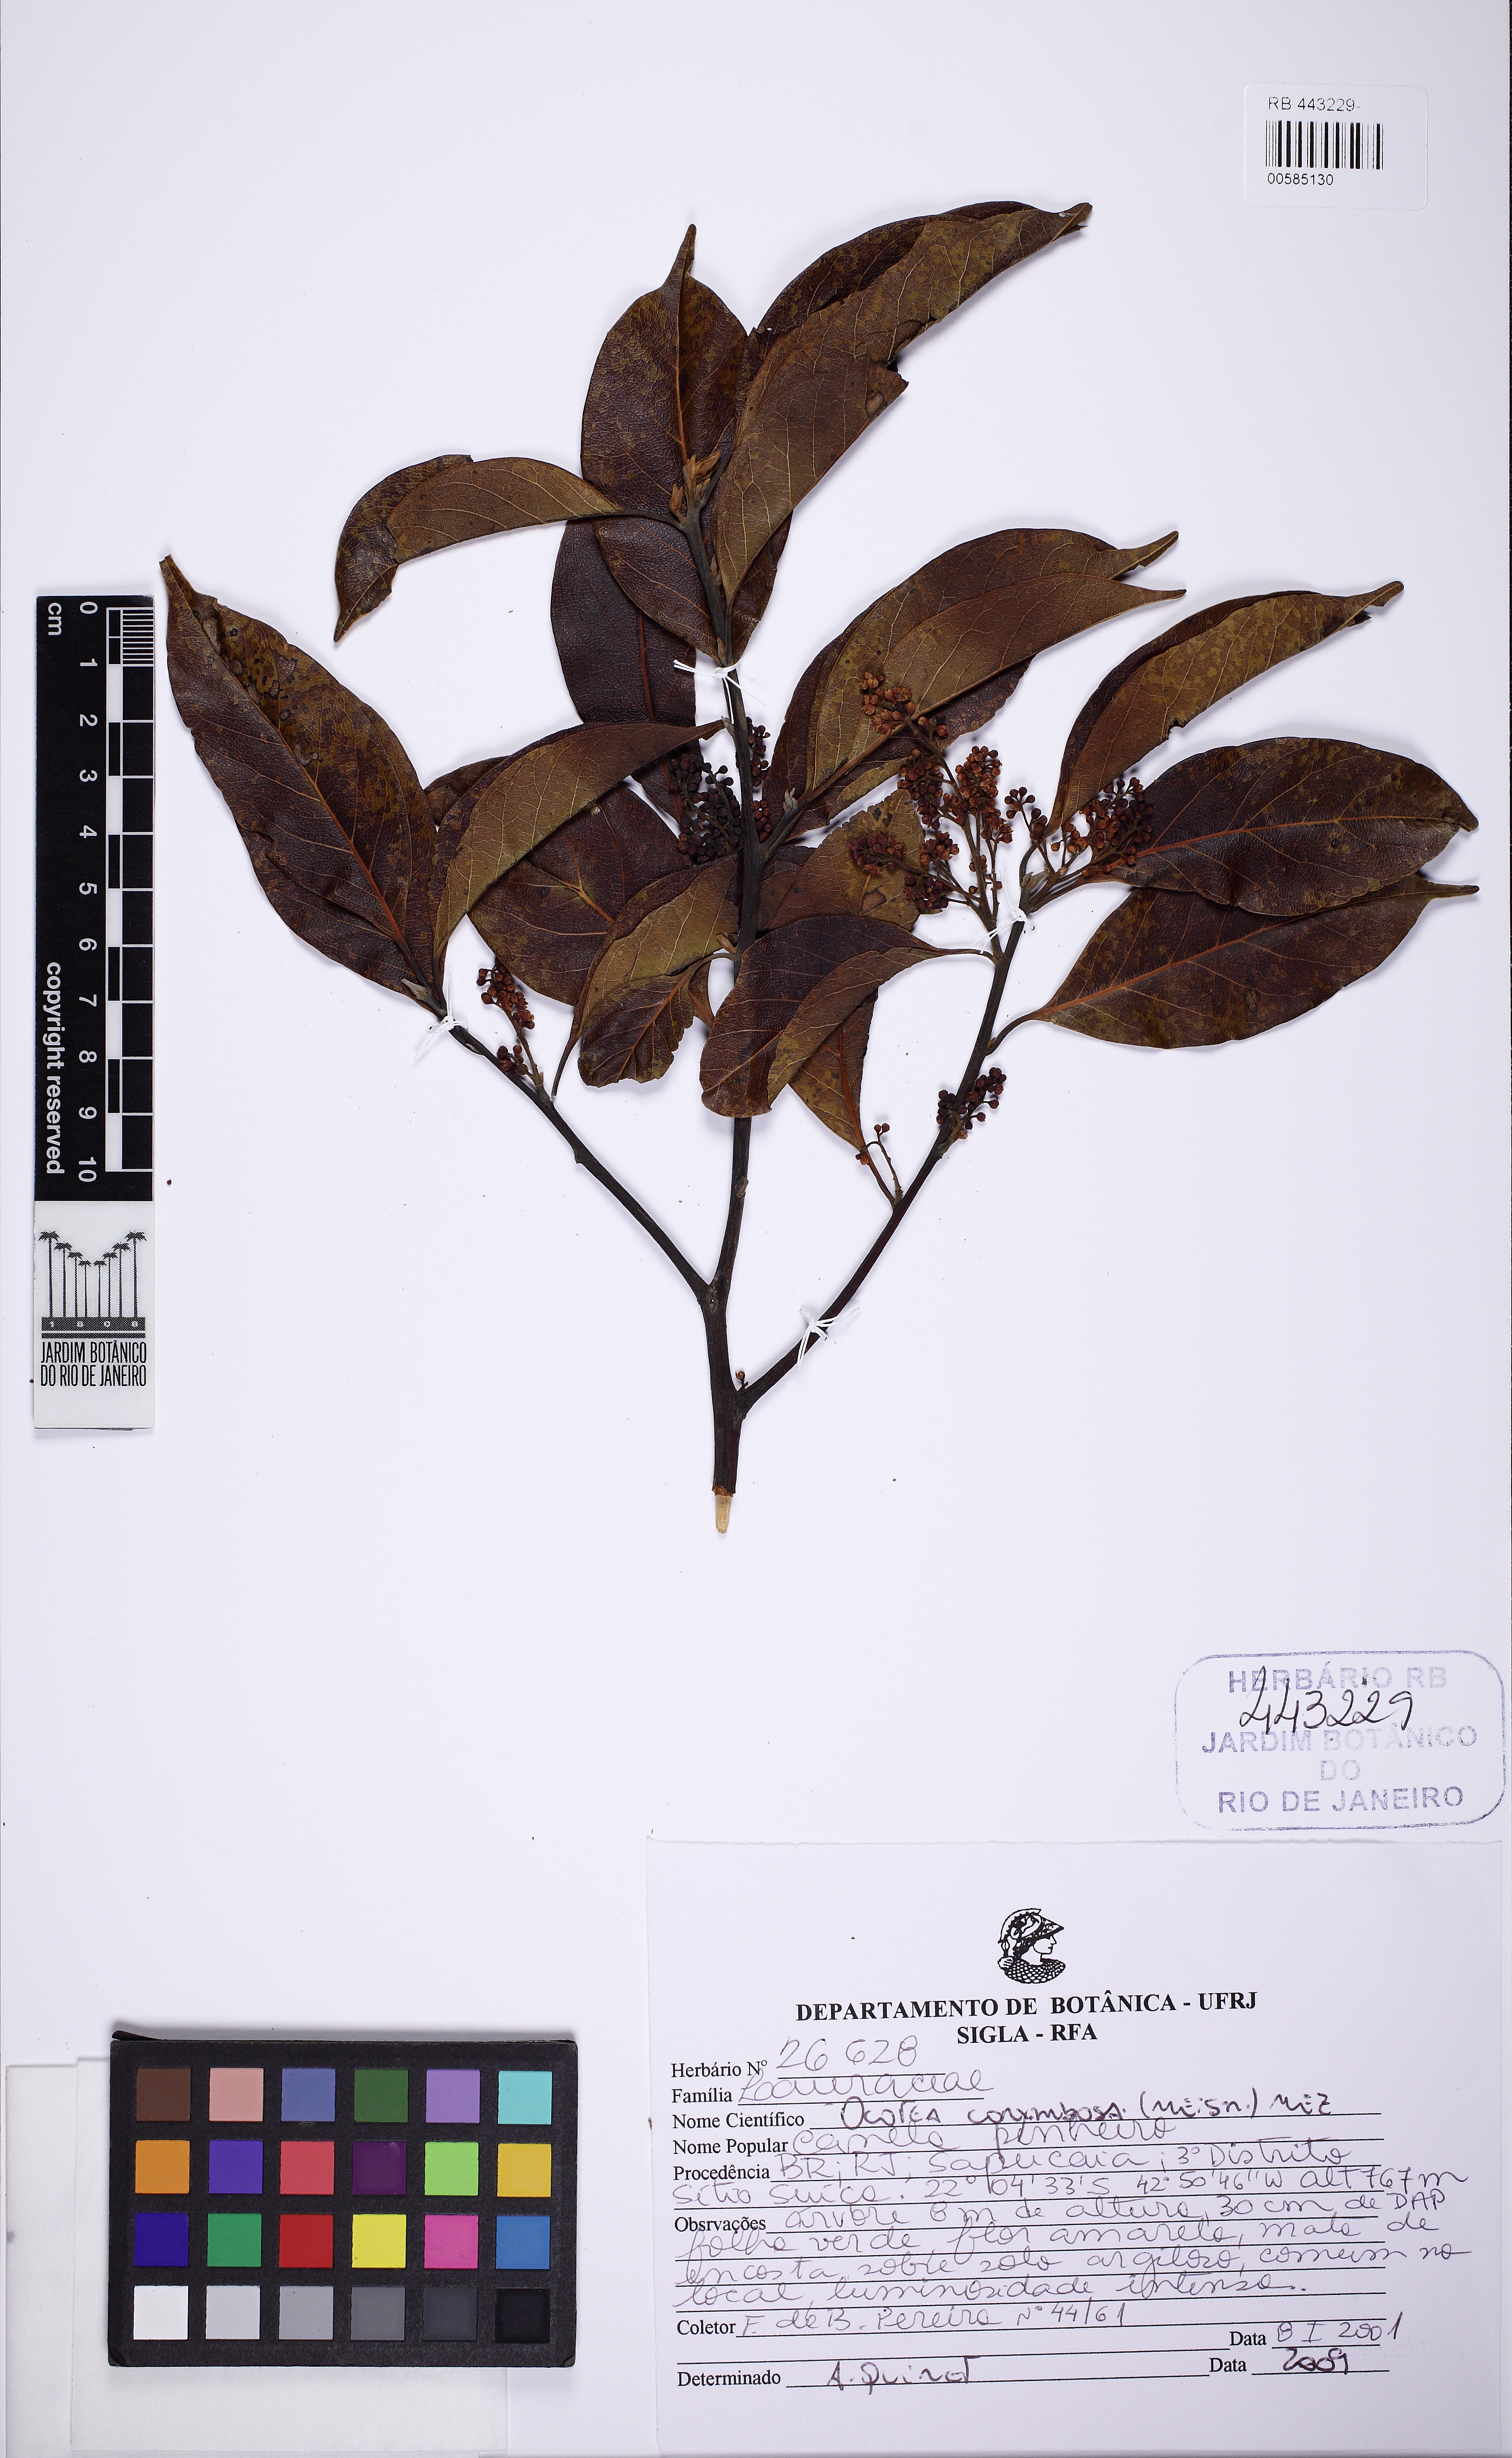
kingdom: Plantae
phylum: Tracheophyta
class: Magnoliopsida
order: Laurales
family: Lauraceae
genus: Mespilodaphne
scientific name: Mespilodaphne corymbosa
